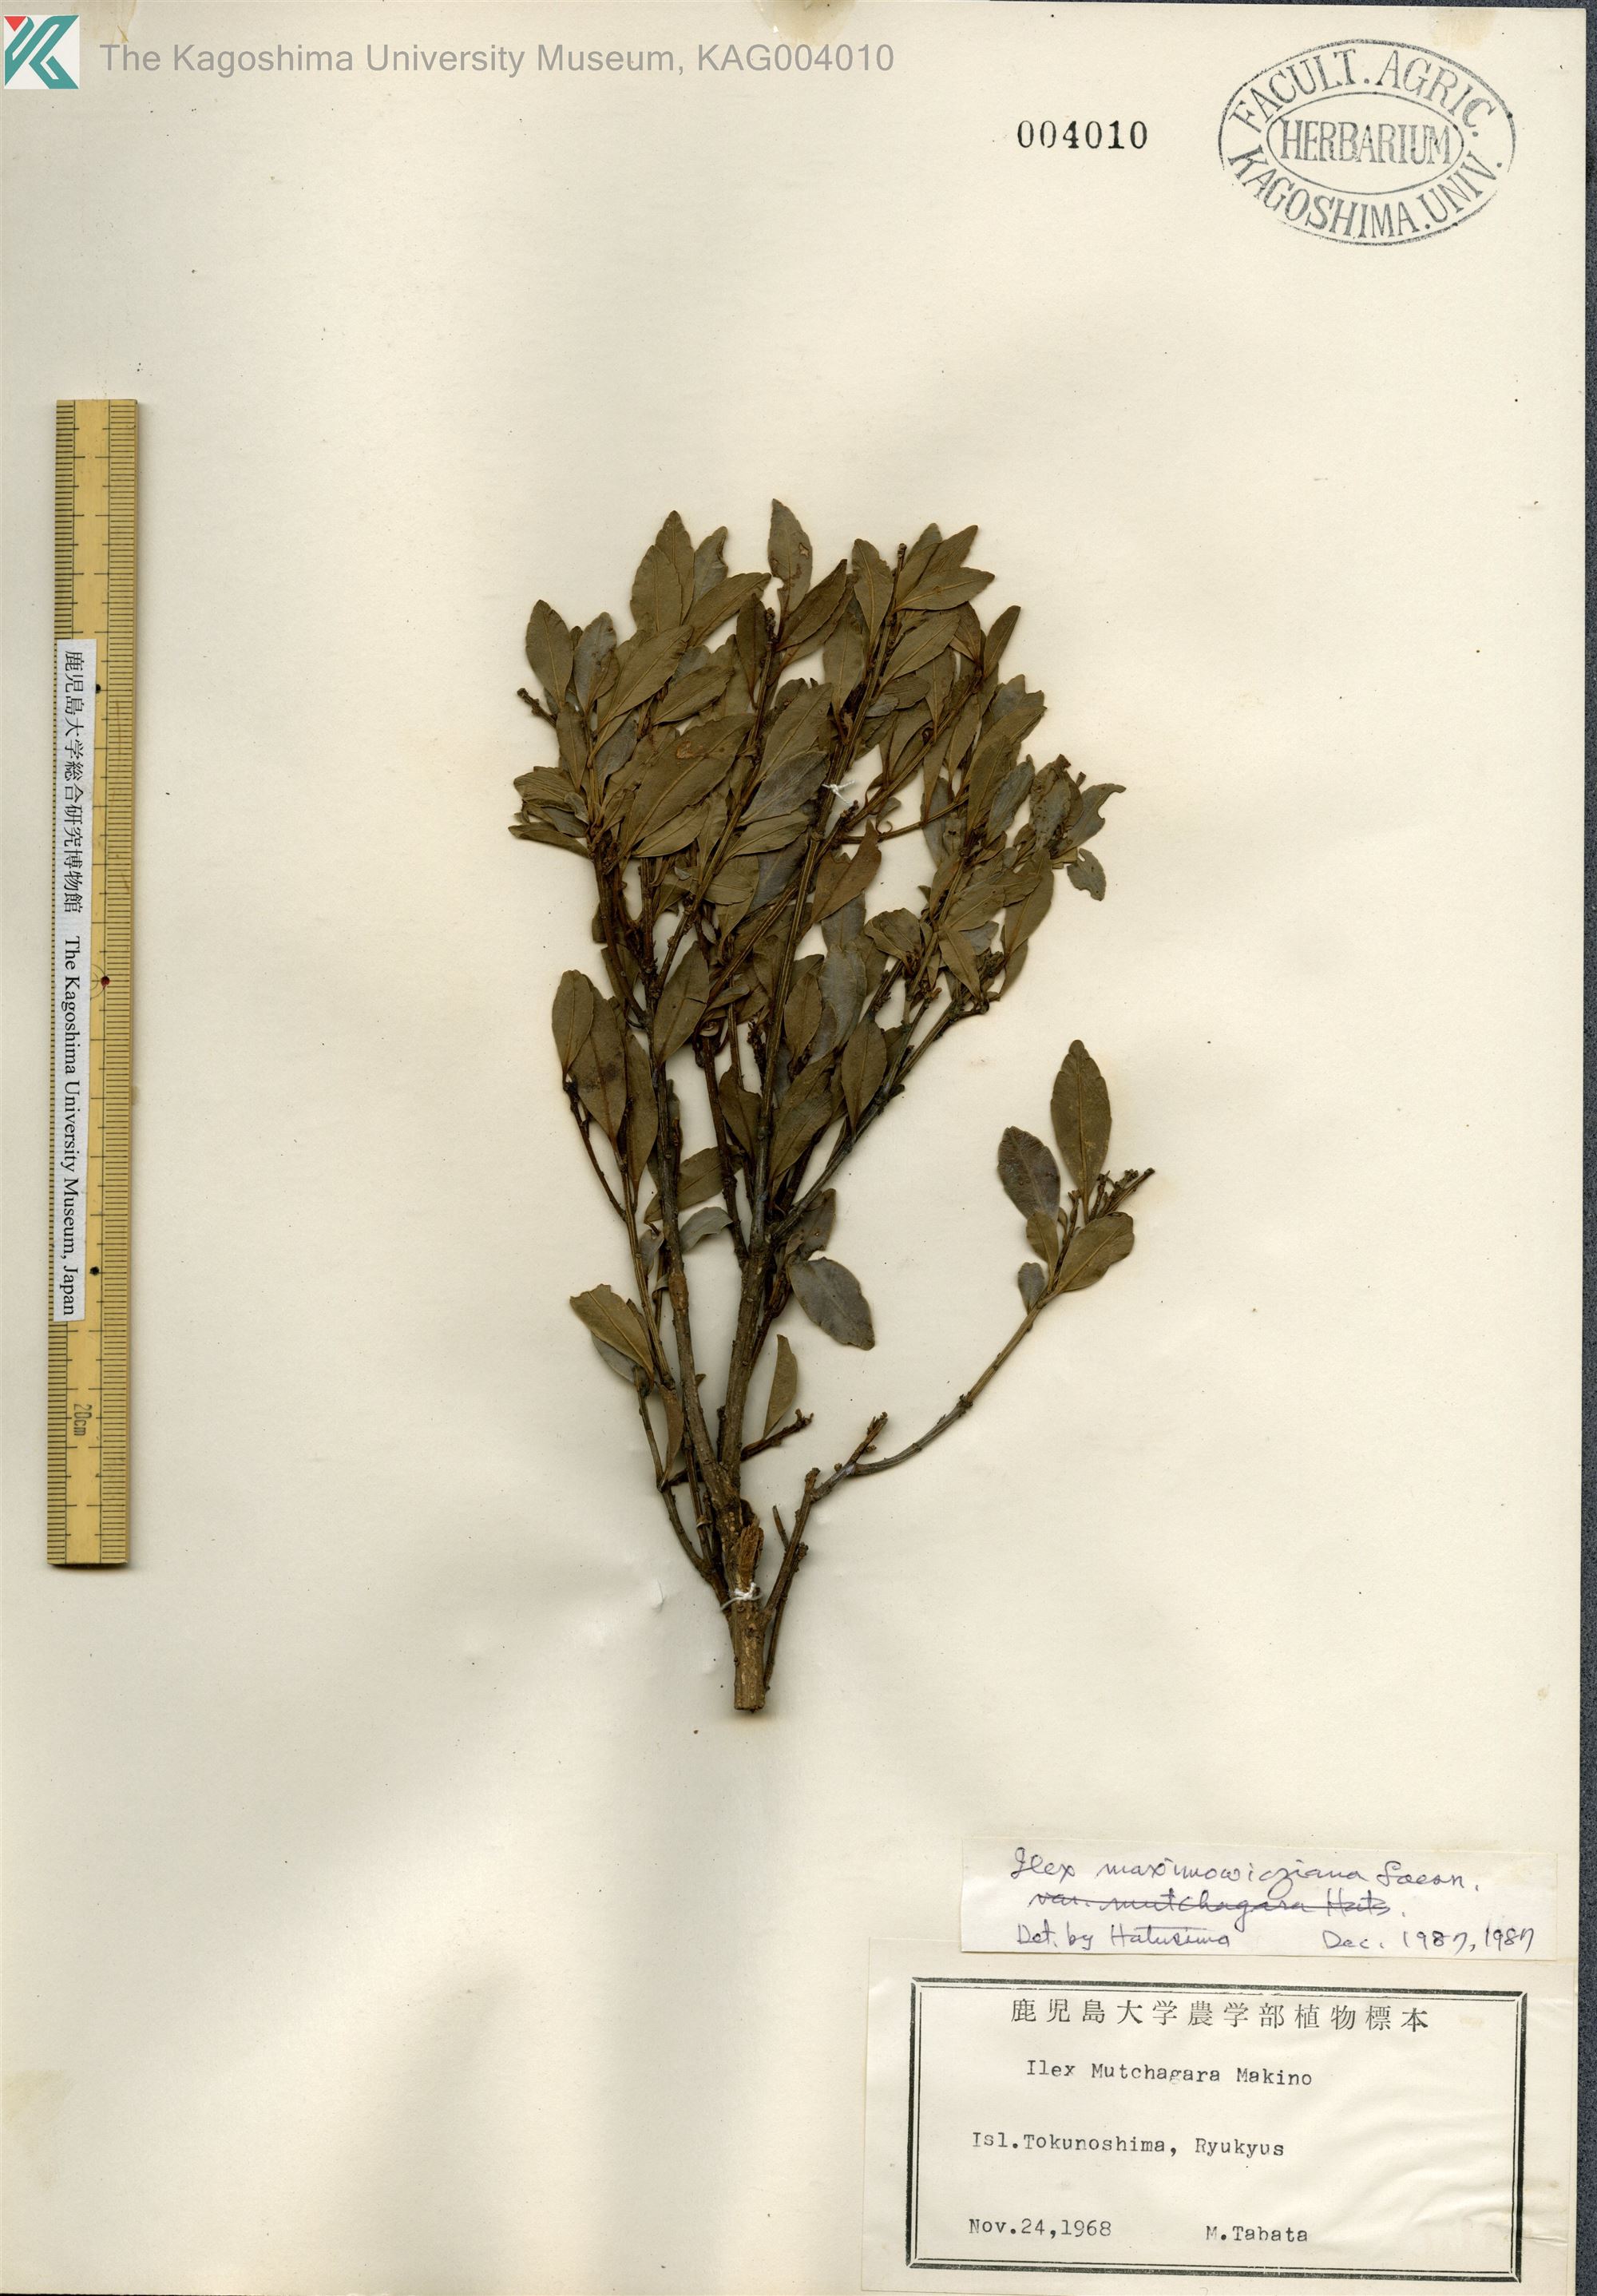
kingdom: Plantae
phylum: Tracheophyta
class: Magnoliopsida
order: Aquifoliales
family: Aquifoliaceae
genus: Ilex
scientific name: Ilex maximowicziana
